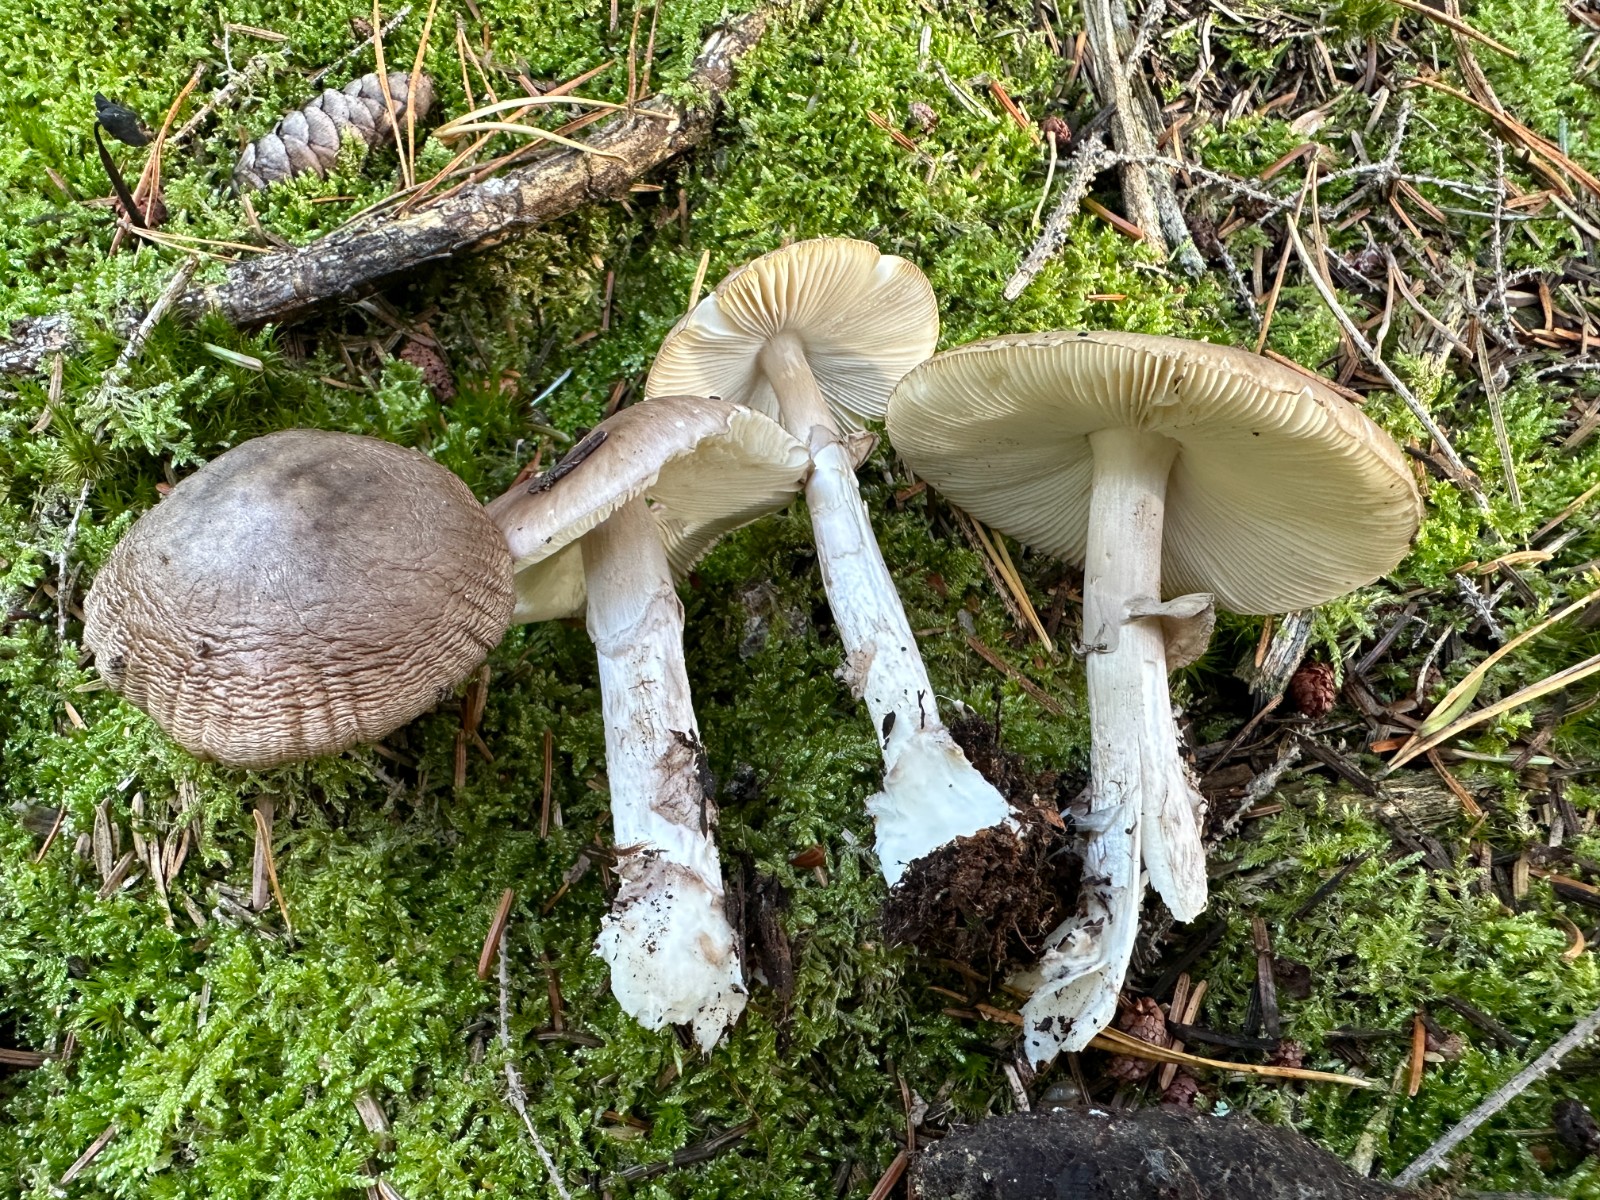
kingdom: Fungi
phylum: Basidiomycota
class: Agaricomycetes
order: Agaricales
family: Amanitaceae
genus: Amanita
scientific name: Amanita porphyria
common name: porfyr-fluesvamp
